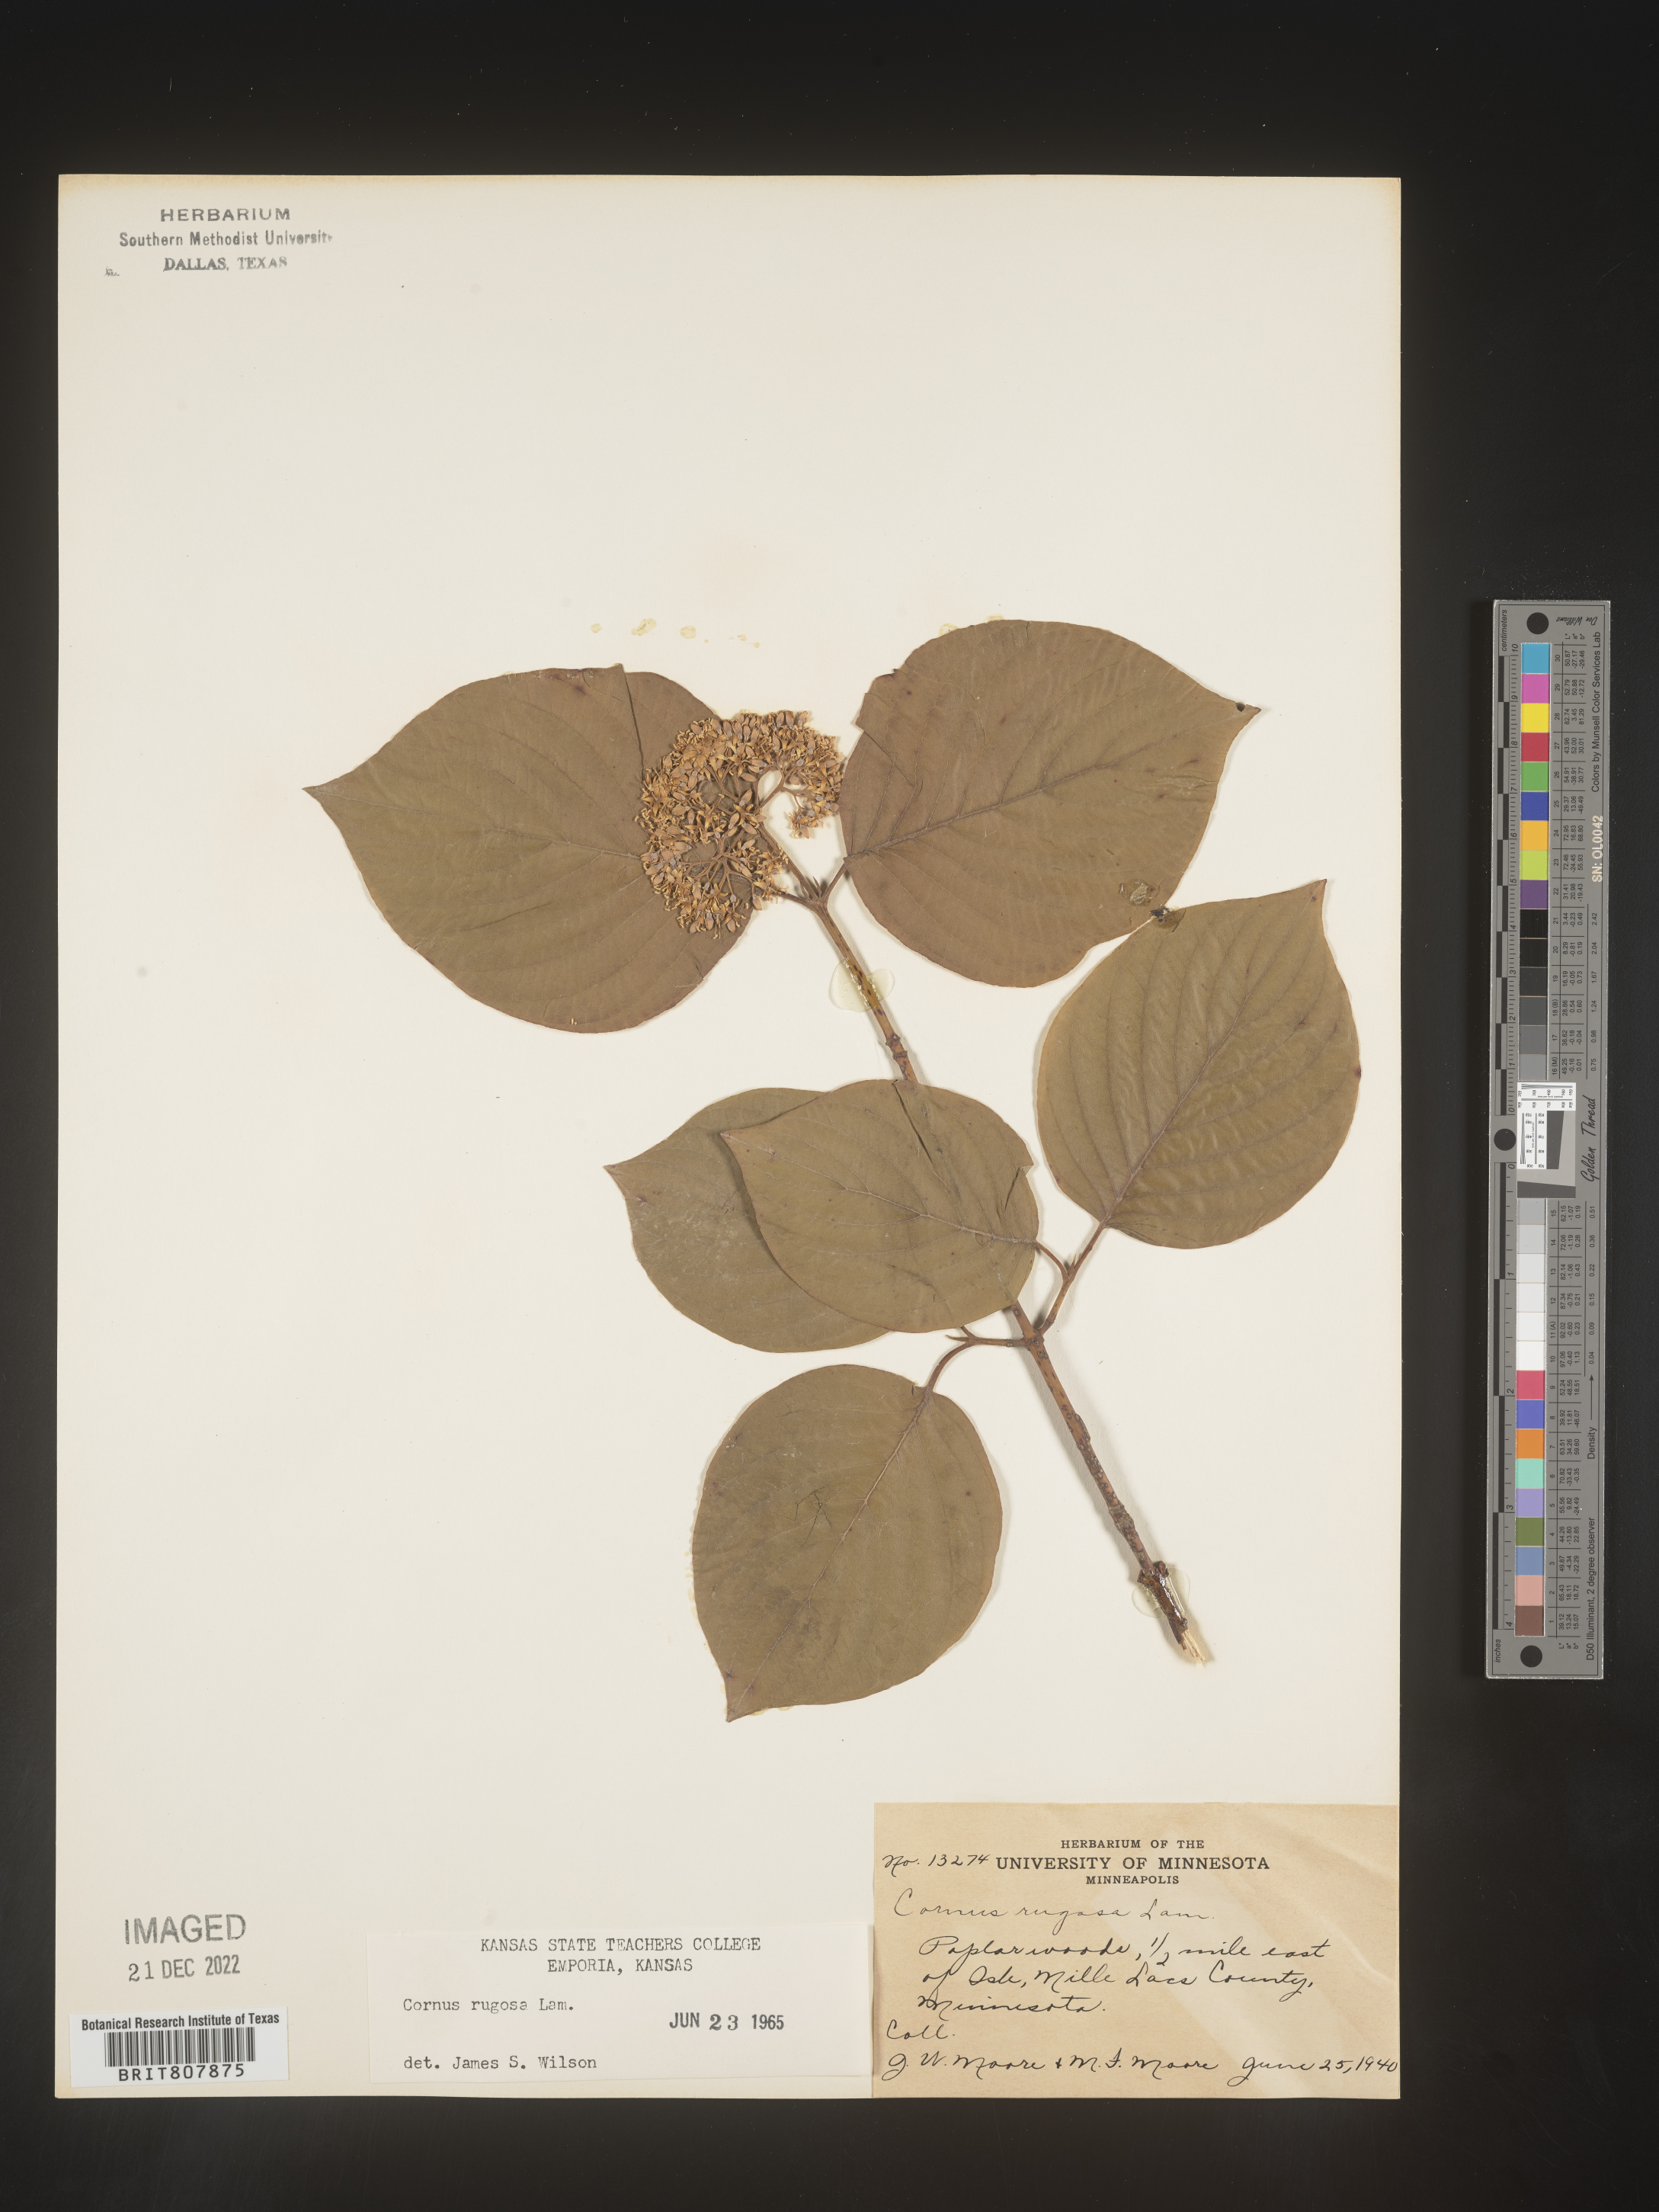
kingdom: Plantae
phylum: Tracheophyta
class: Magnoliopsida
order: Cornales
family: Cornaceae
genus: Cornus
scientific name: Cornus rugosa
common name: Round-leaf dogwood
